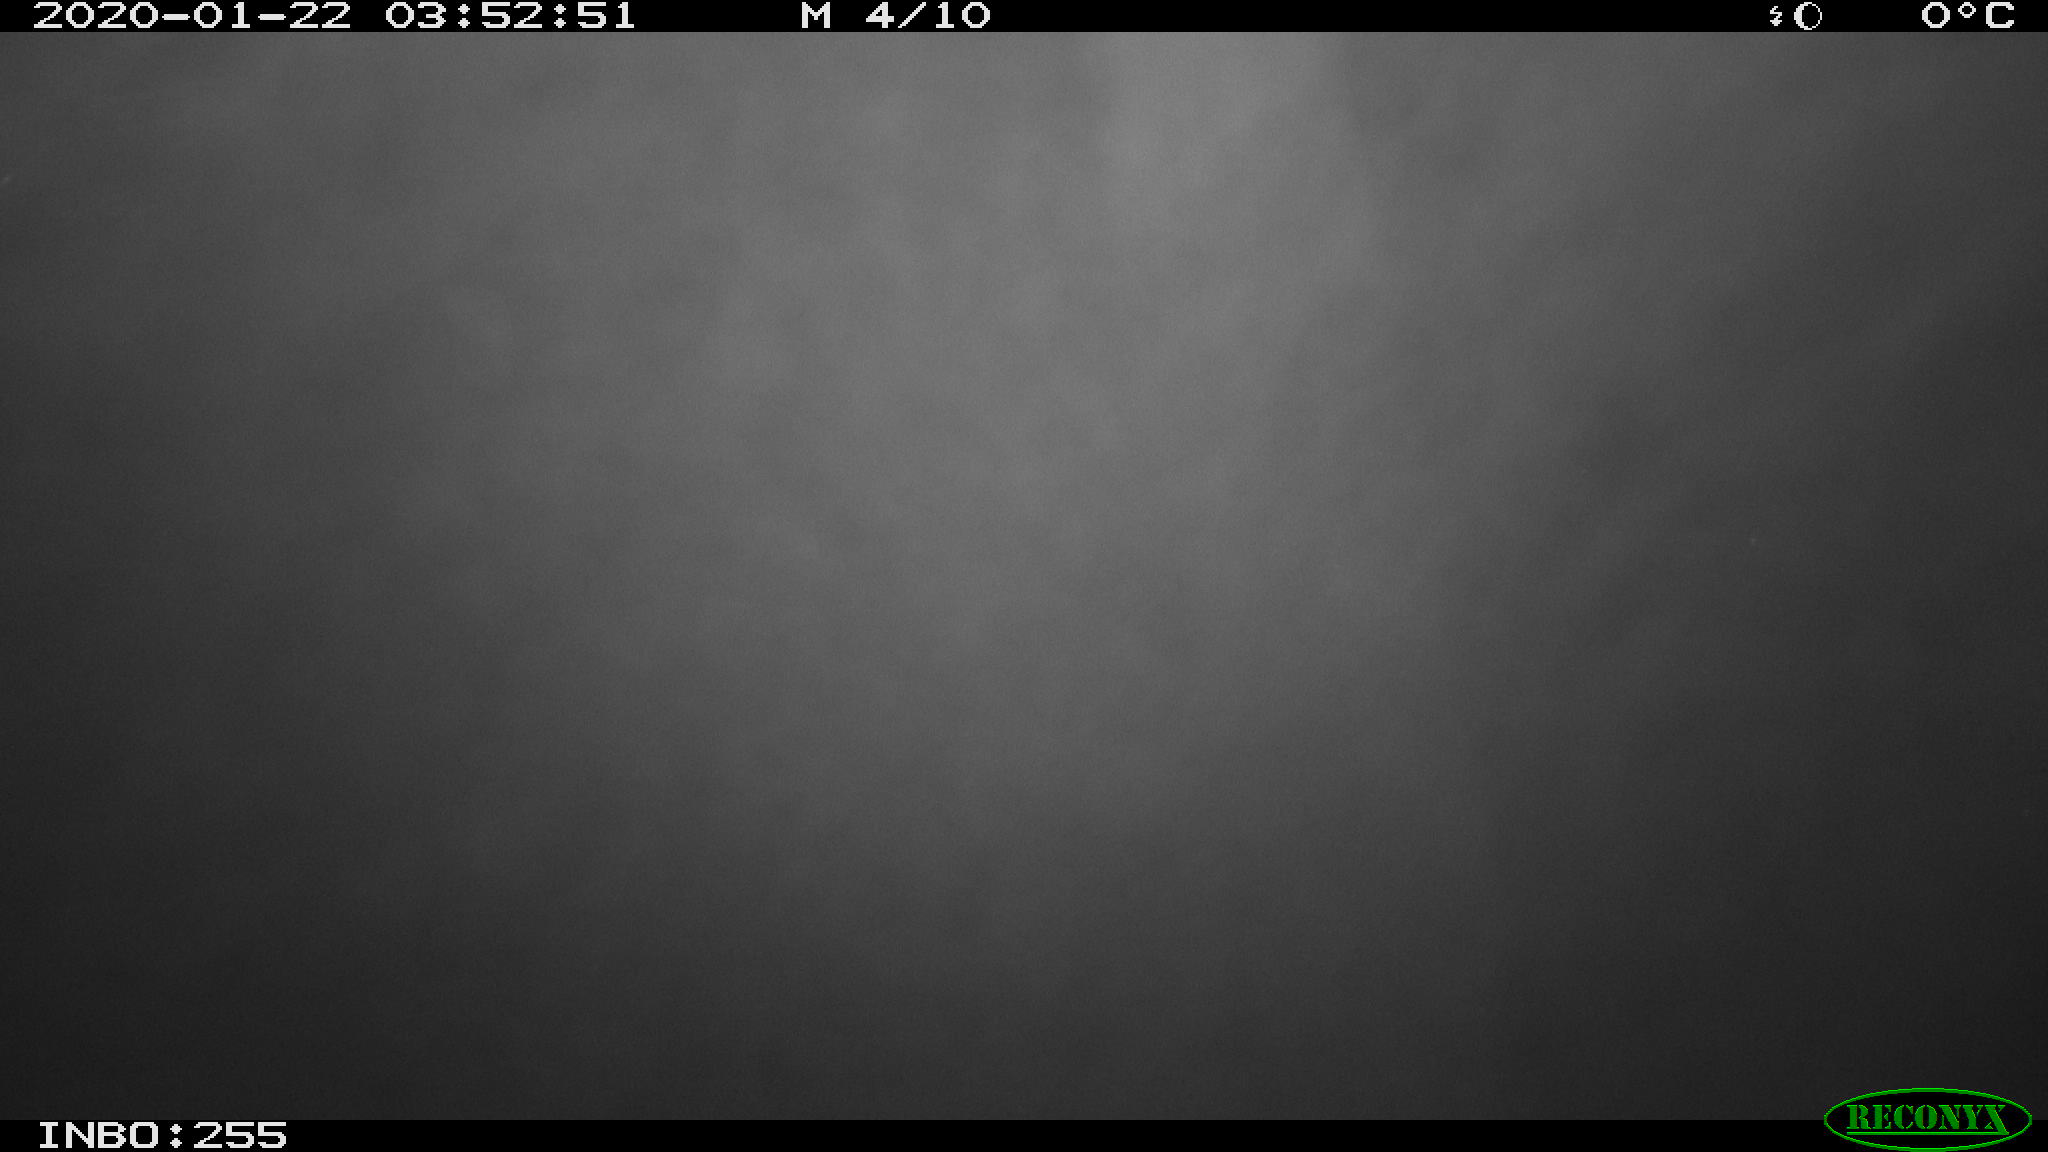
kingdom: Animalia
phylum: Chordata
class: Mammalia
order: Rodentia
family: Cricetidae
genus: Ondatra
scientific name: Ondatra zibethicus
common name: Muskrat
